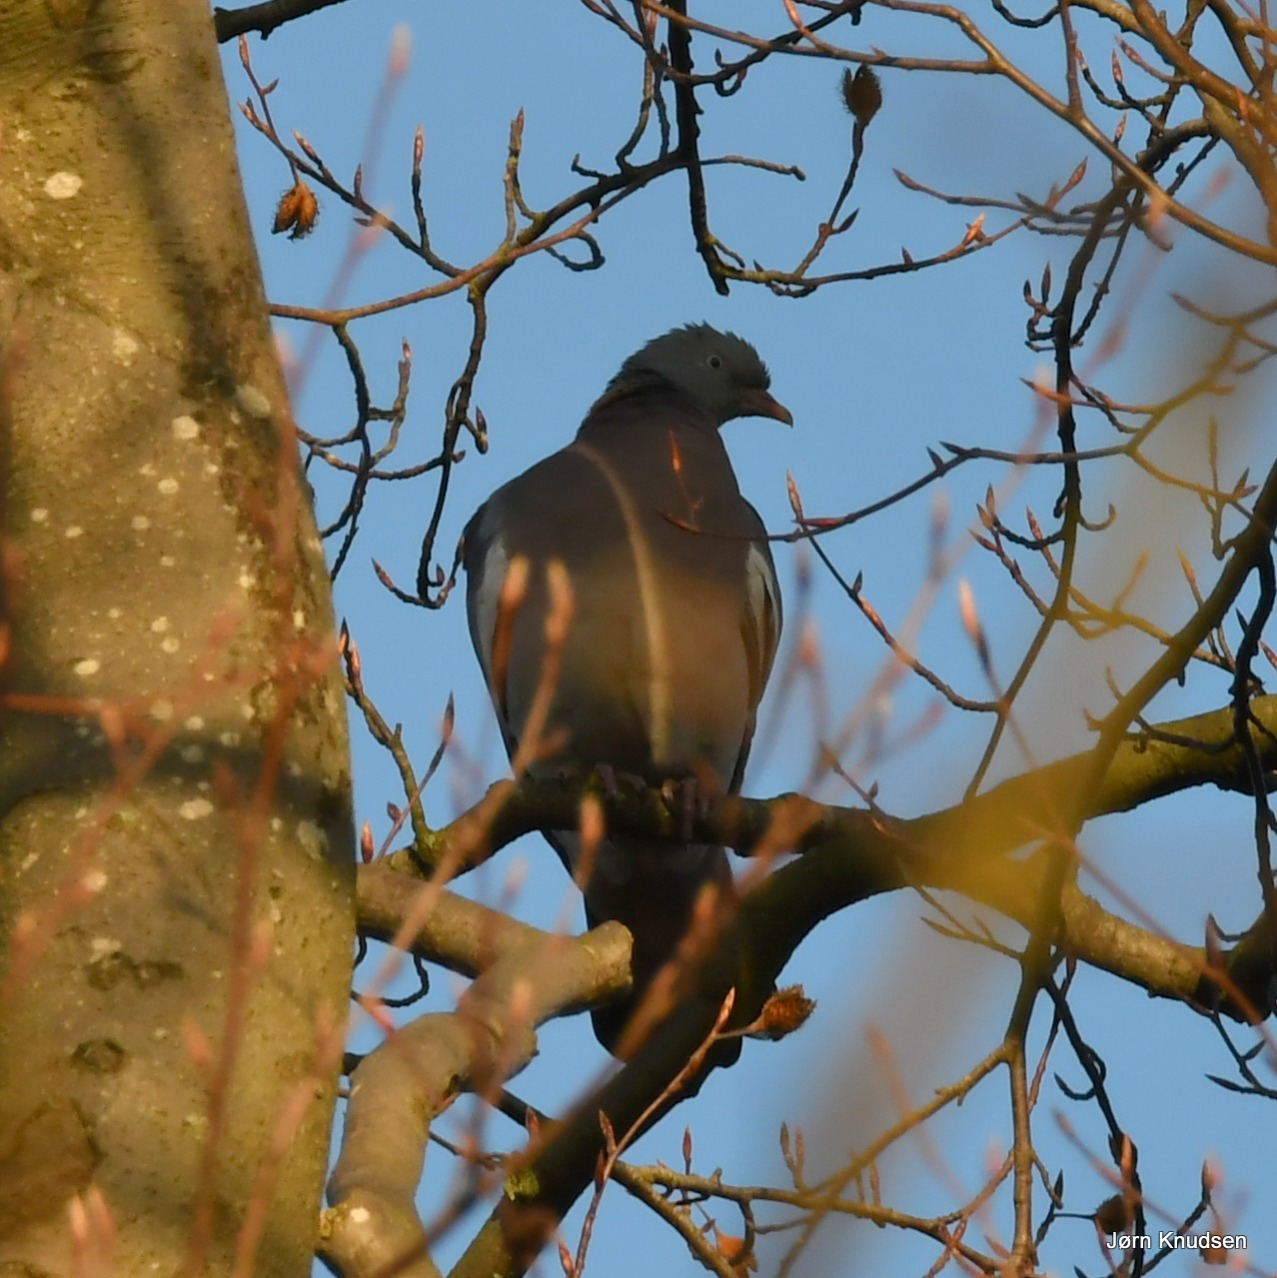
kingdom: Animalia
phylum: Chordata
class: Aves
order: Columbiformes
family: Columbidae
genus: Columba
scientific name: Columba palumbus
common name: Ringdue
